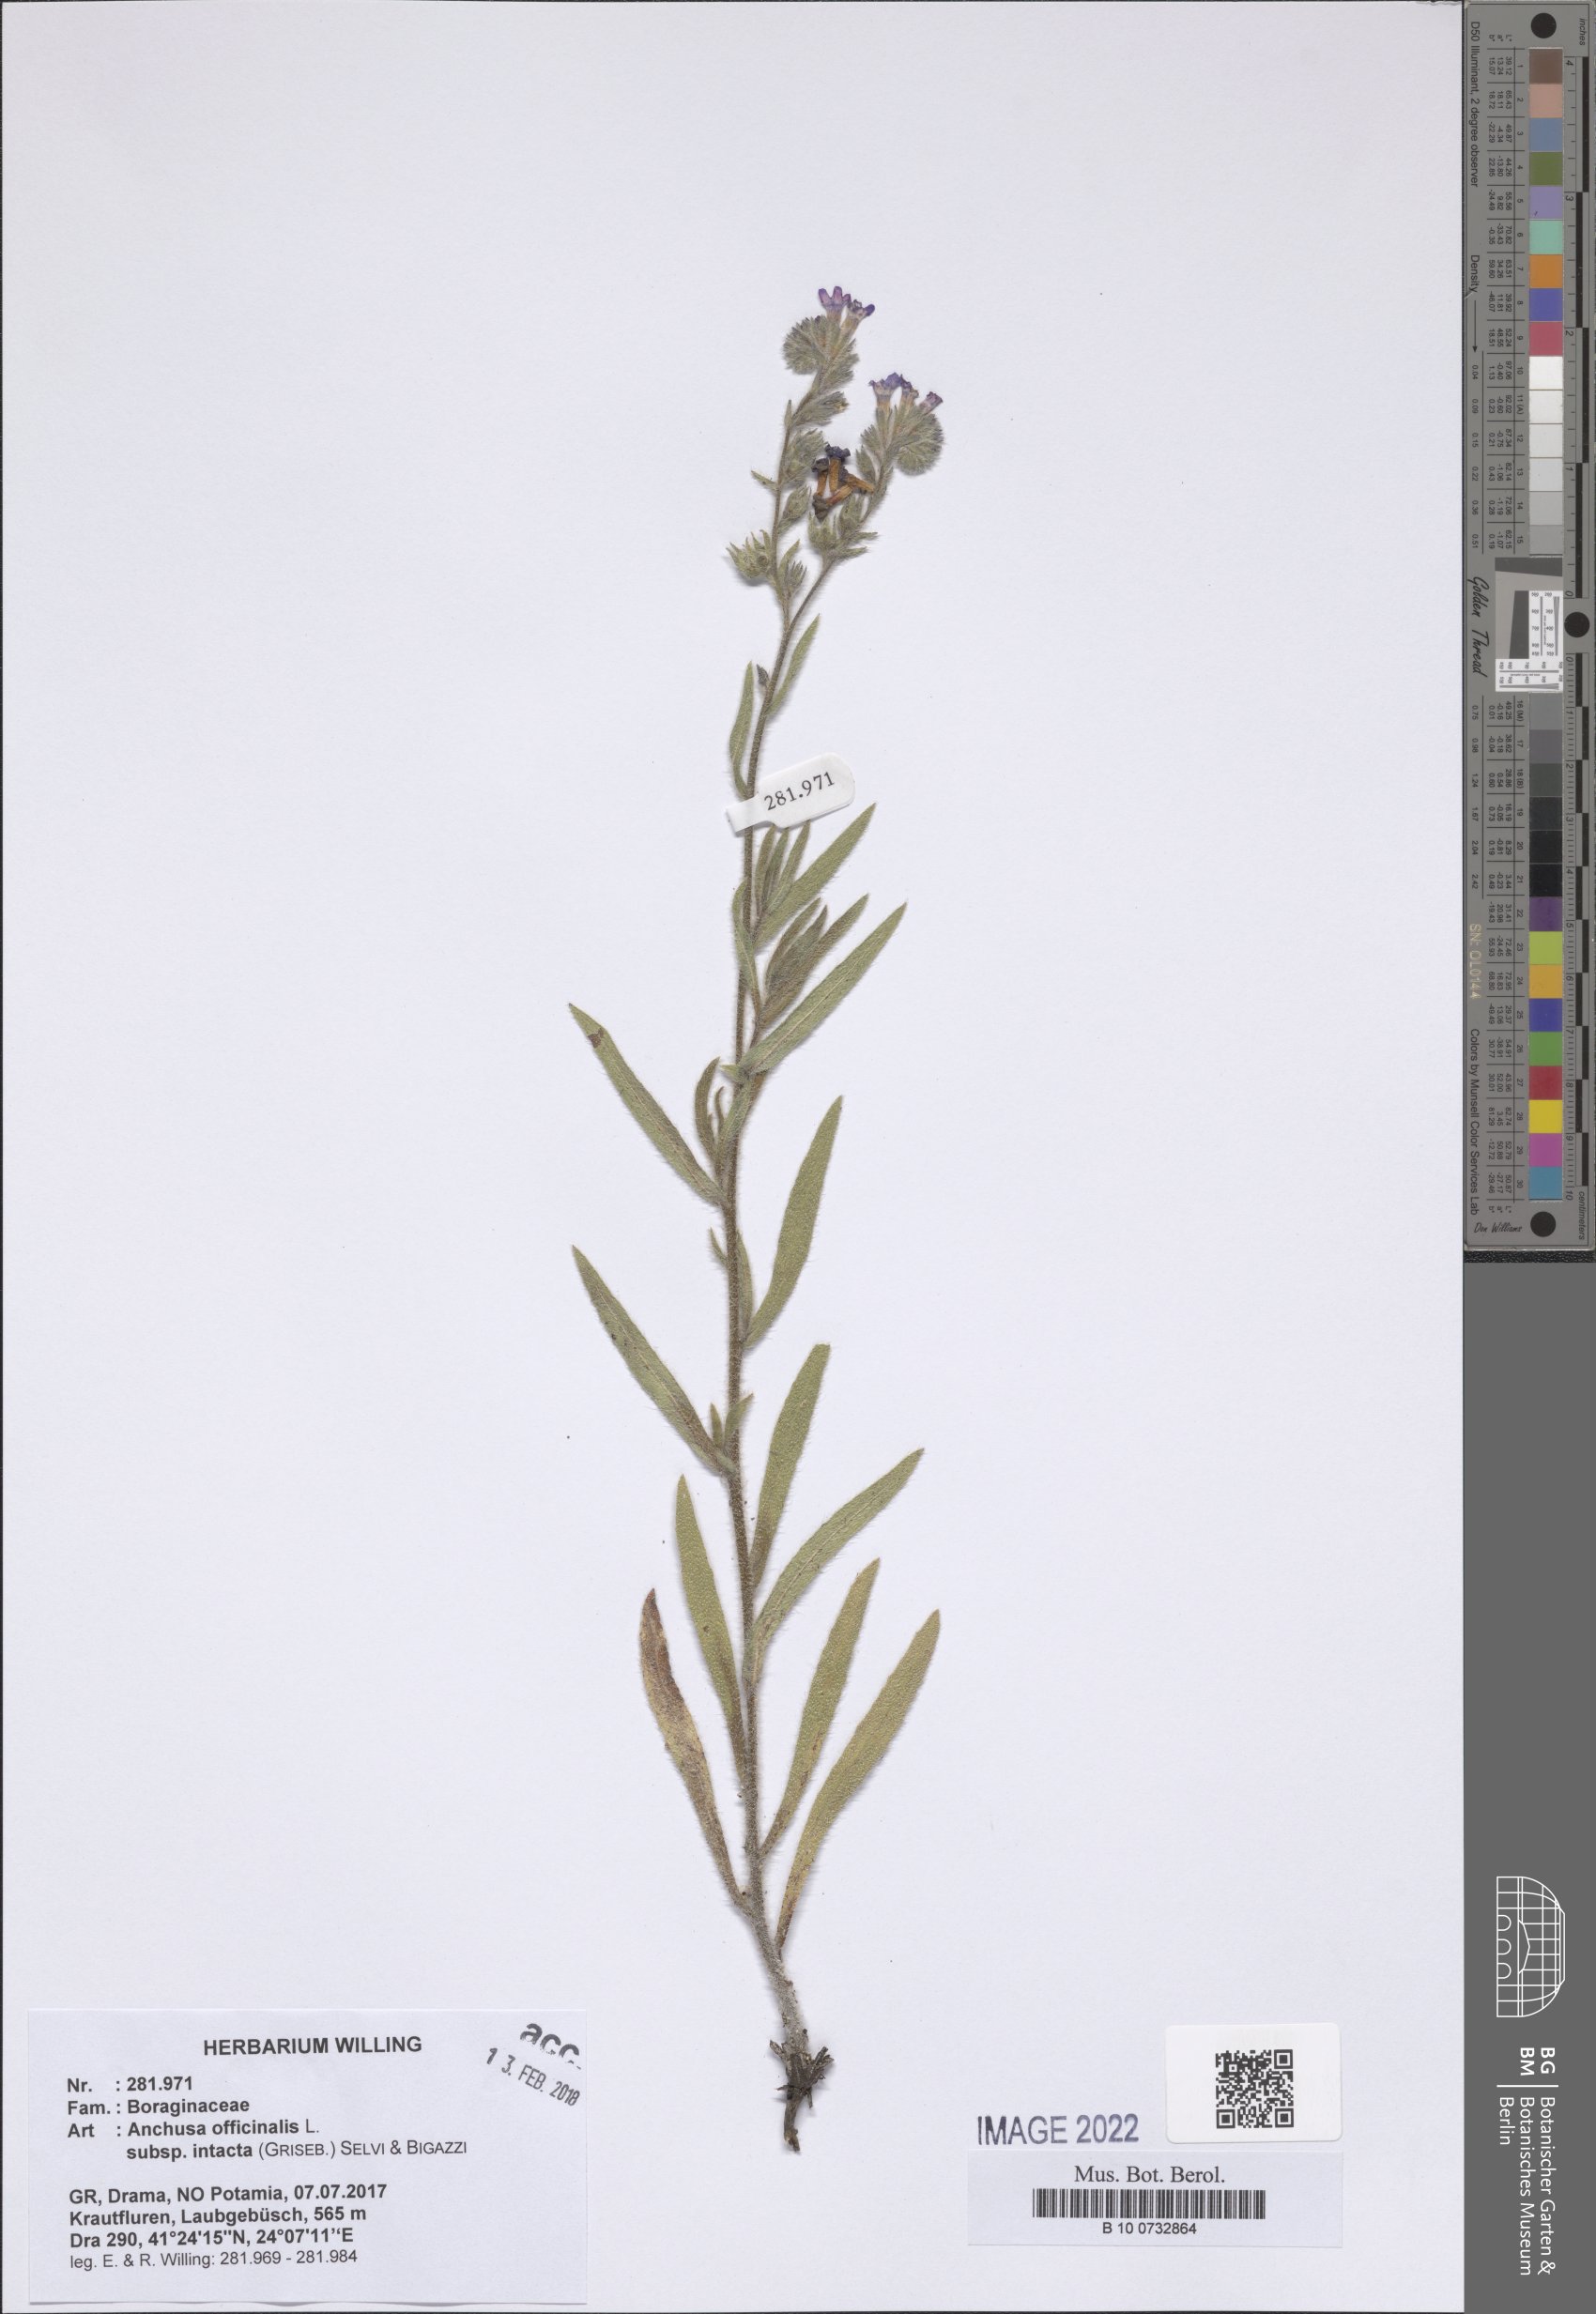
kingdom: Plantae
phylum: Tracheophyta
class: Magnoliopsida
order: Boraginales
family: Boraginaceae
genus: Anchusa
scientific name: Anchusa officinalis
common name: Alkanet
